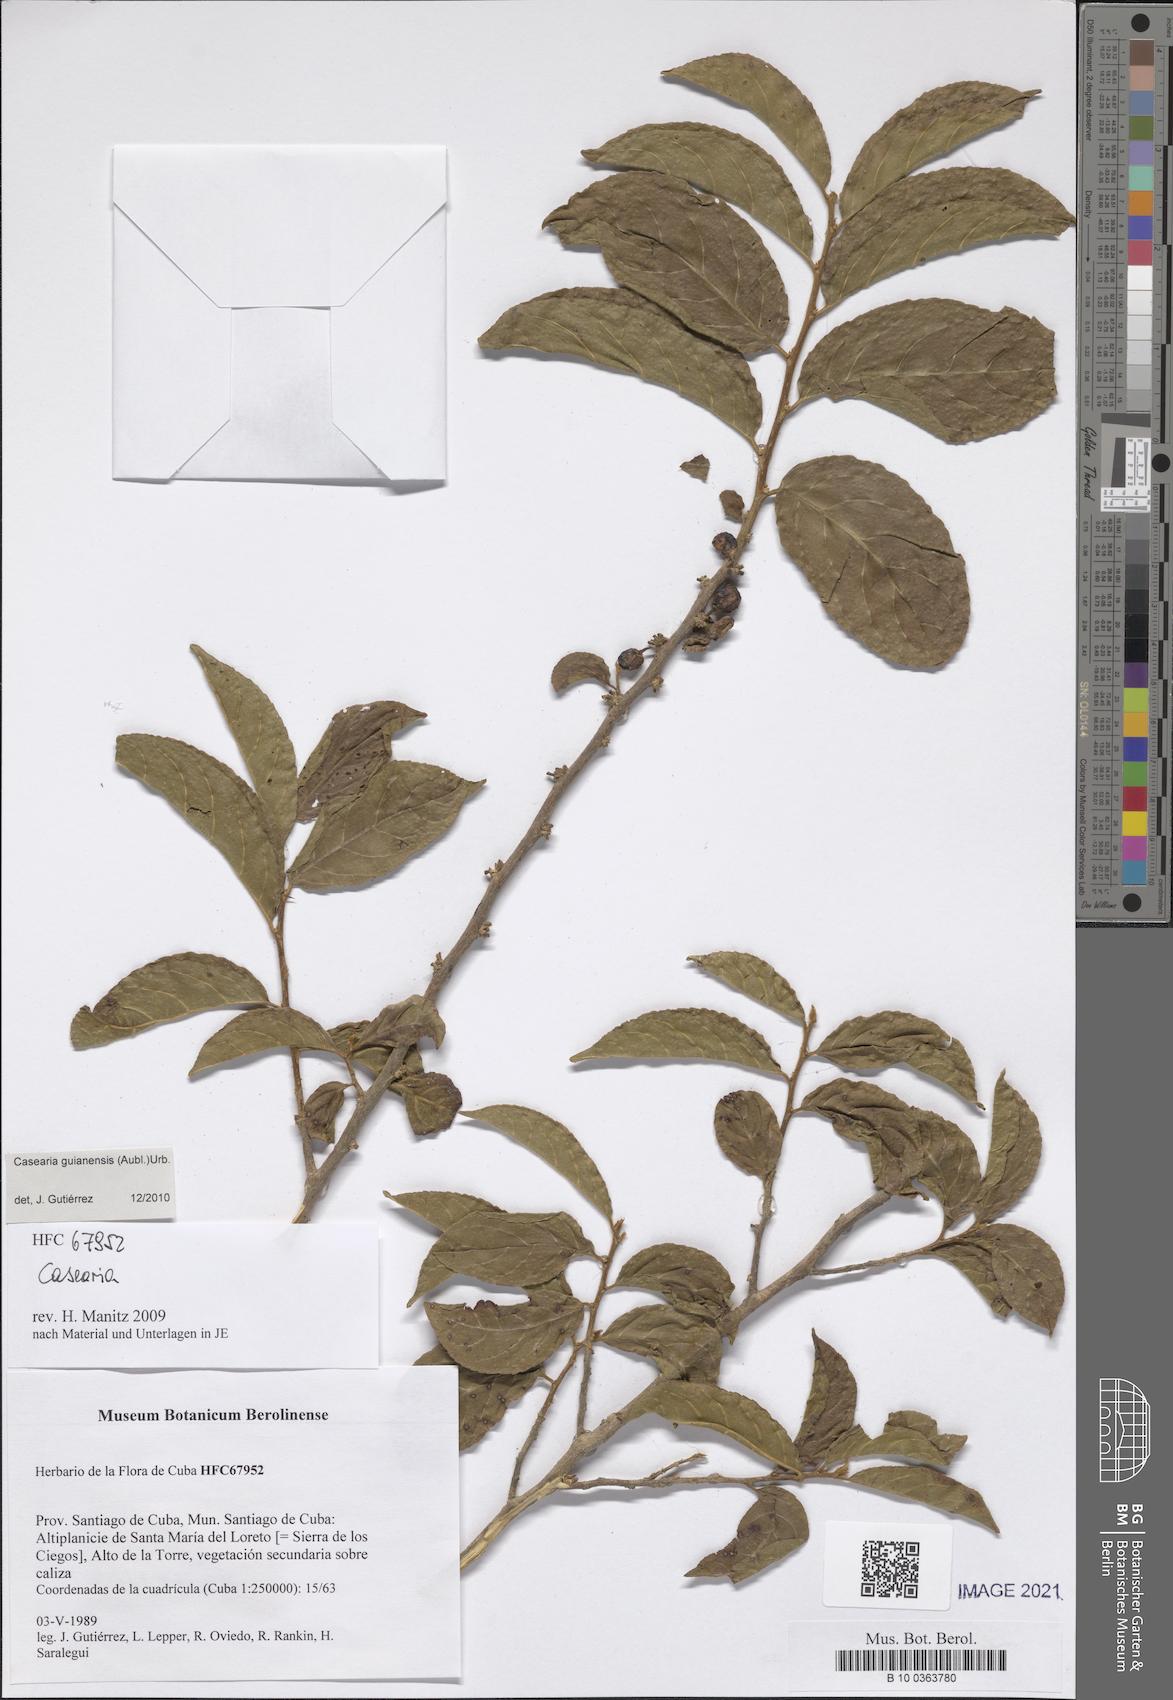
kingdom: Plantae
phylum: Tracheophyta
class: Magnoliopsida
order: Malpighiales
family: Salicaceae
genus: Casearia
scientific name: Casearia guianensis
